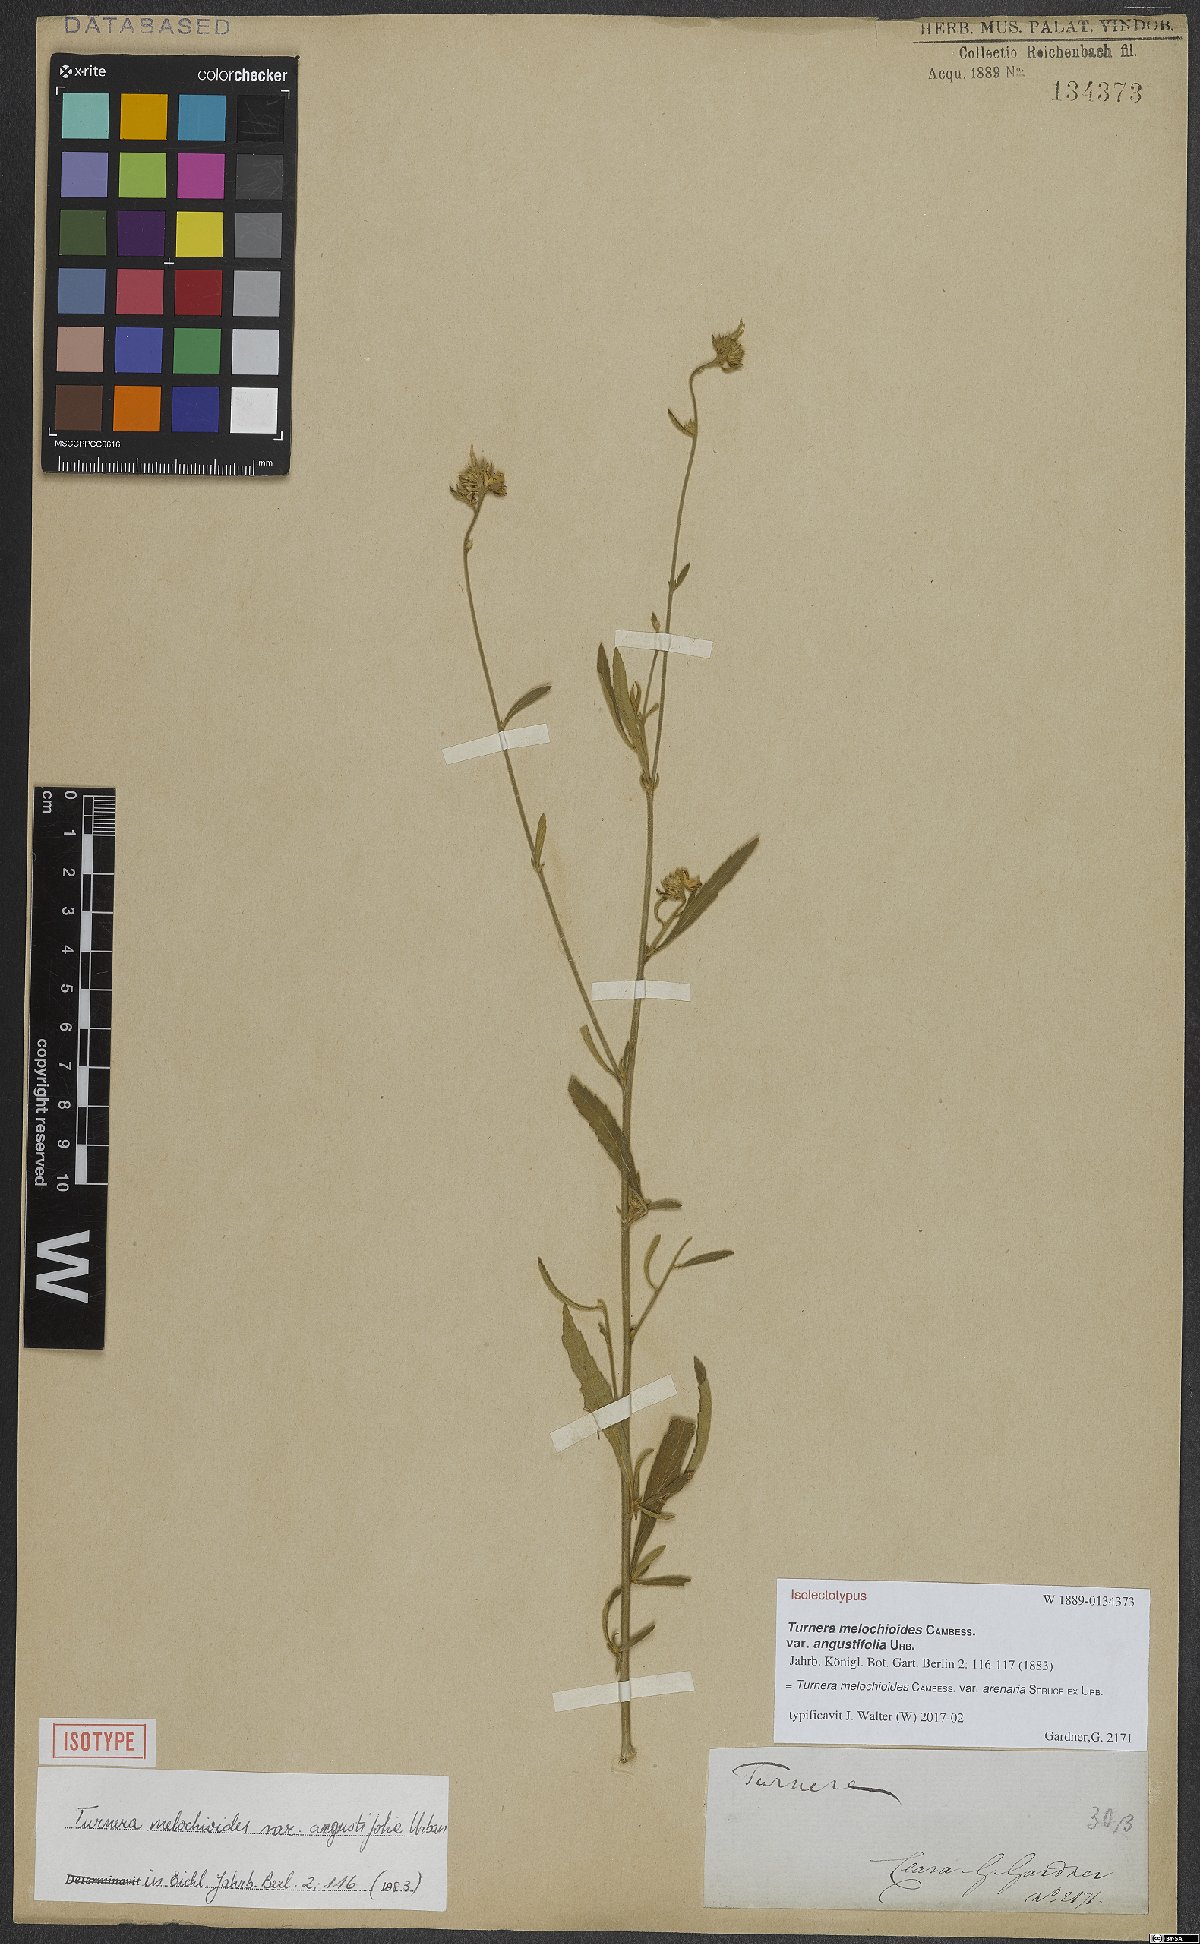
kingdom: Plantae
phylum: Tracheophyta
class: Magnoliopsida
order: Malpighiales
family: Turneraceae
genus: Turnera
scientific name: Turnera arenaria
